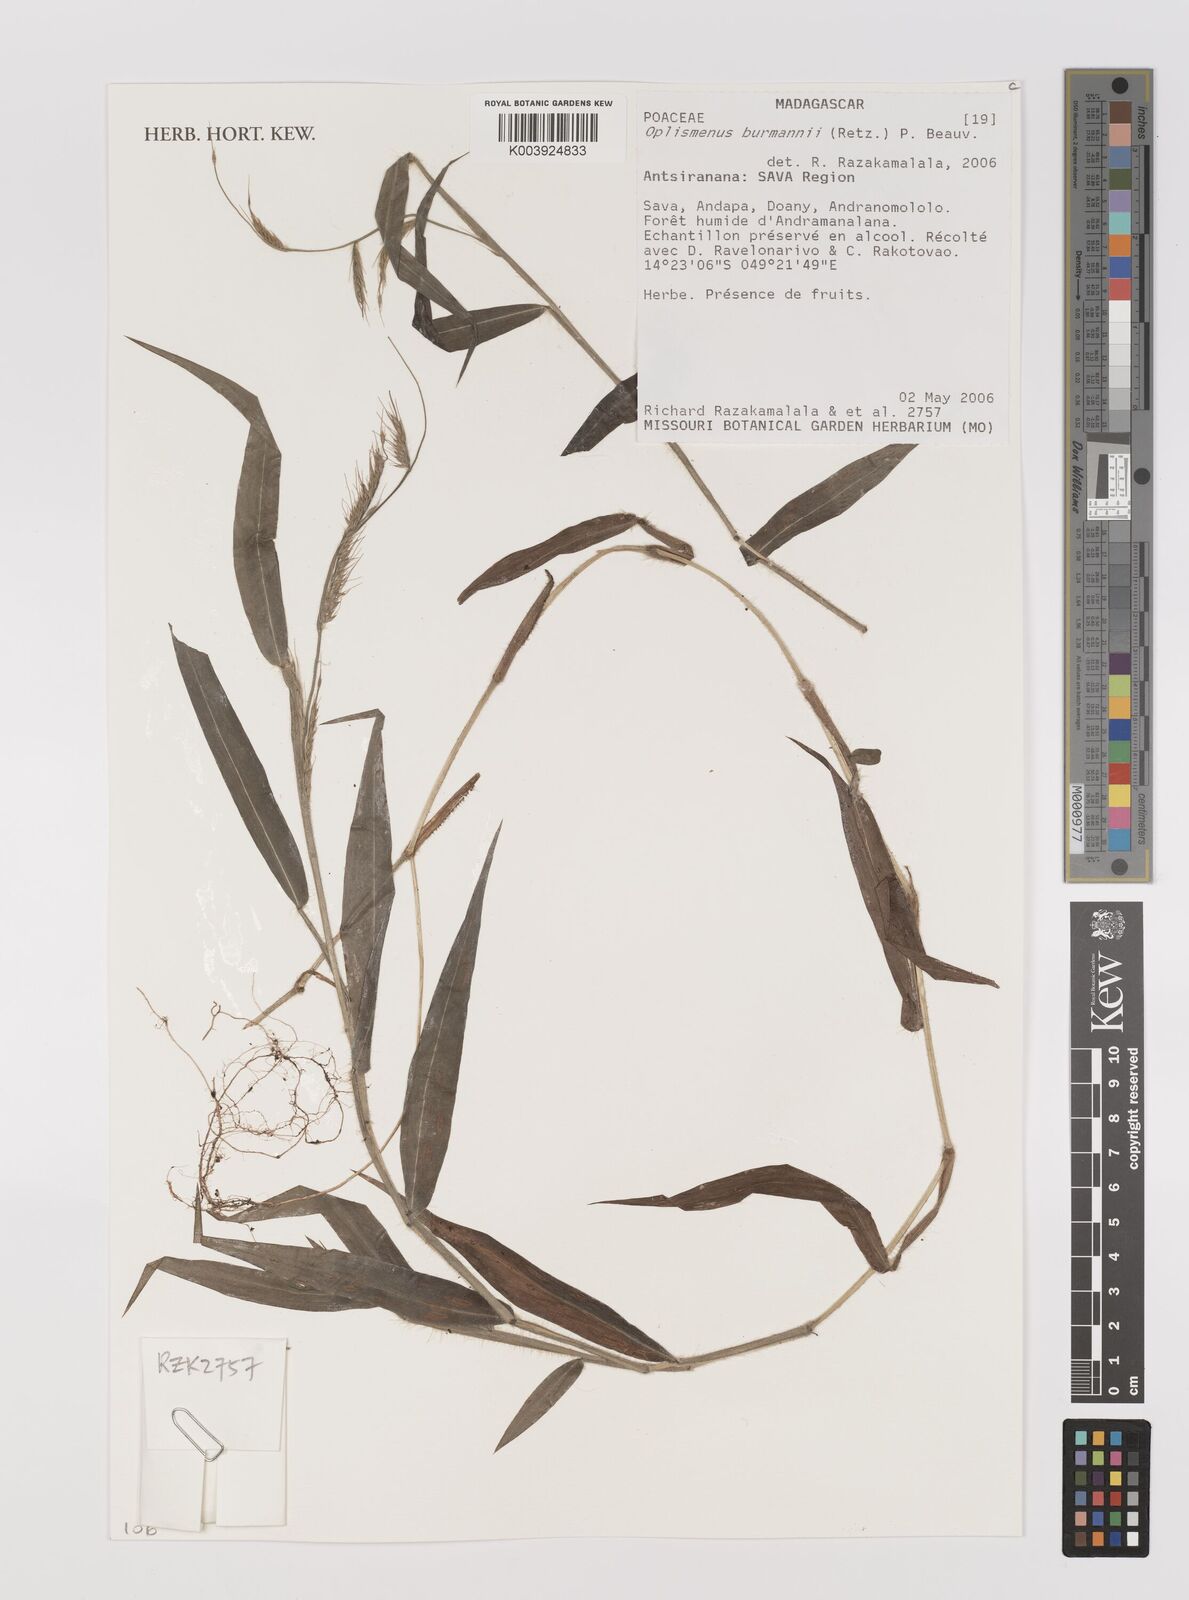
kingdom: Plantae
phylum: Tracheophyta
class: Liliopsida
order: Poales
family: Poaceae
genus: Oplismenus
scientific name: Oplismenus burmanni
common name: Burmann's basketgrass
